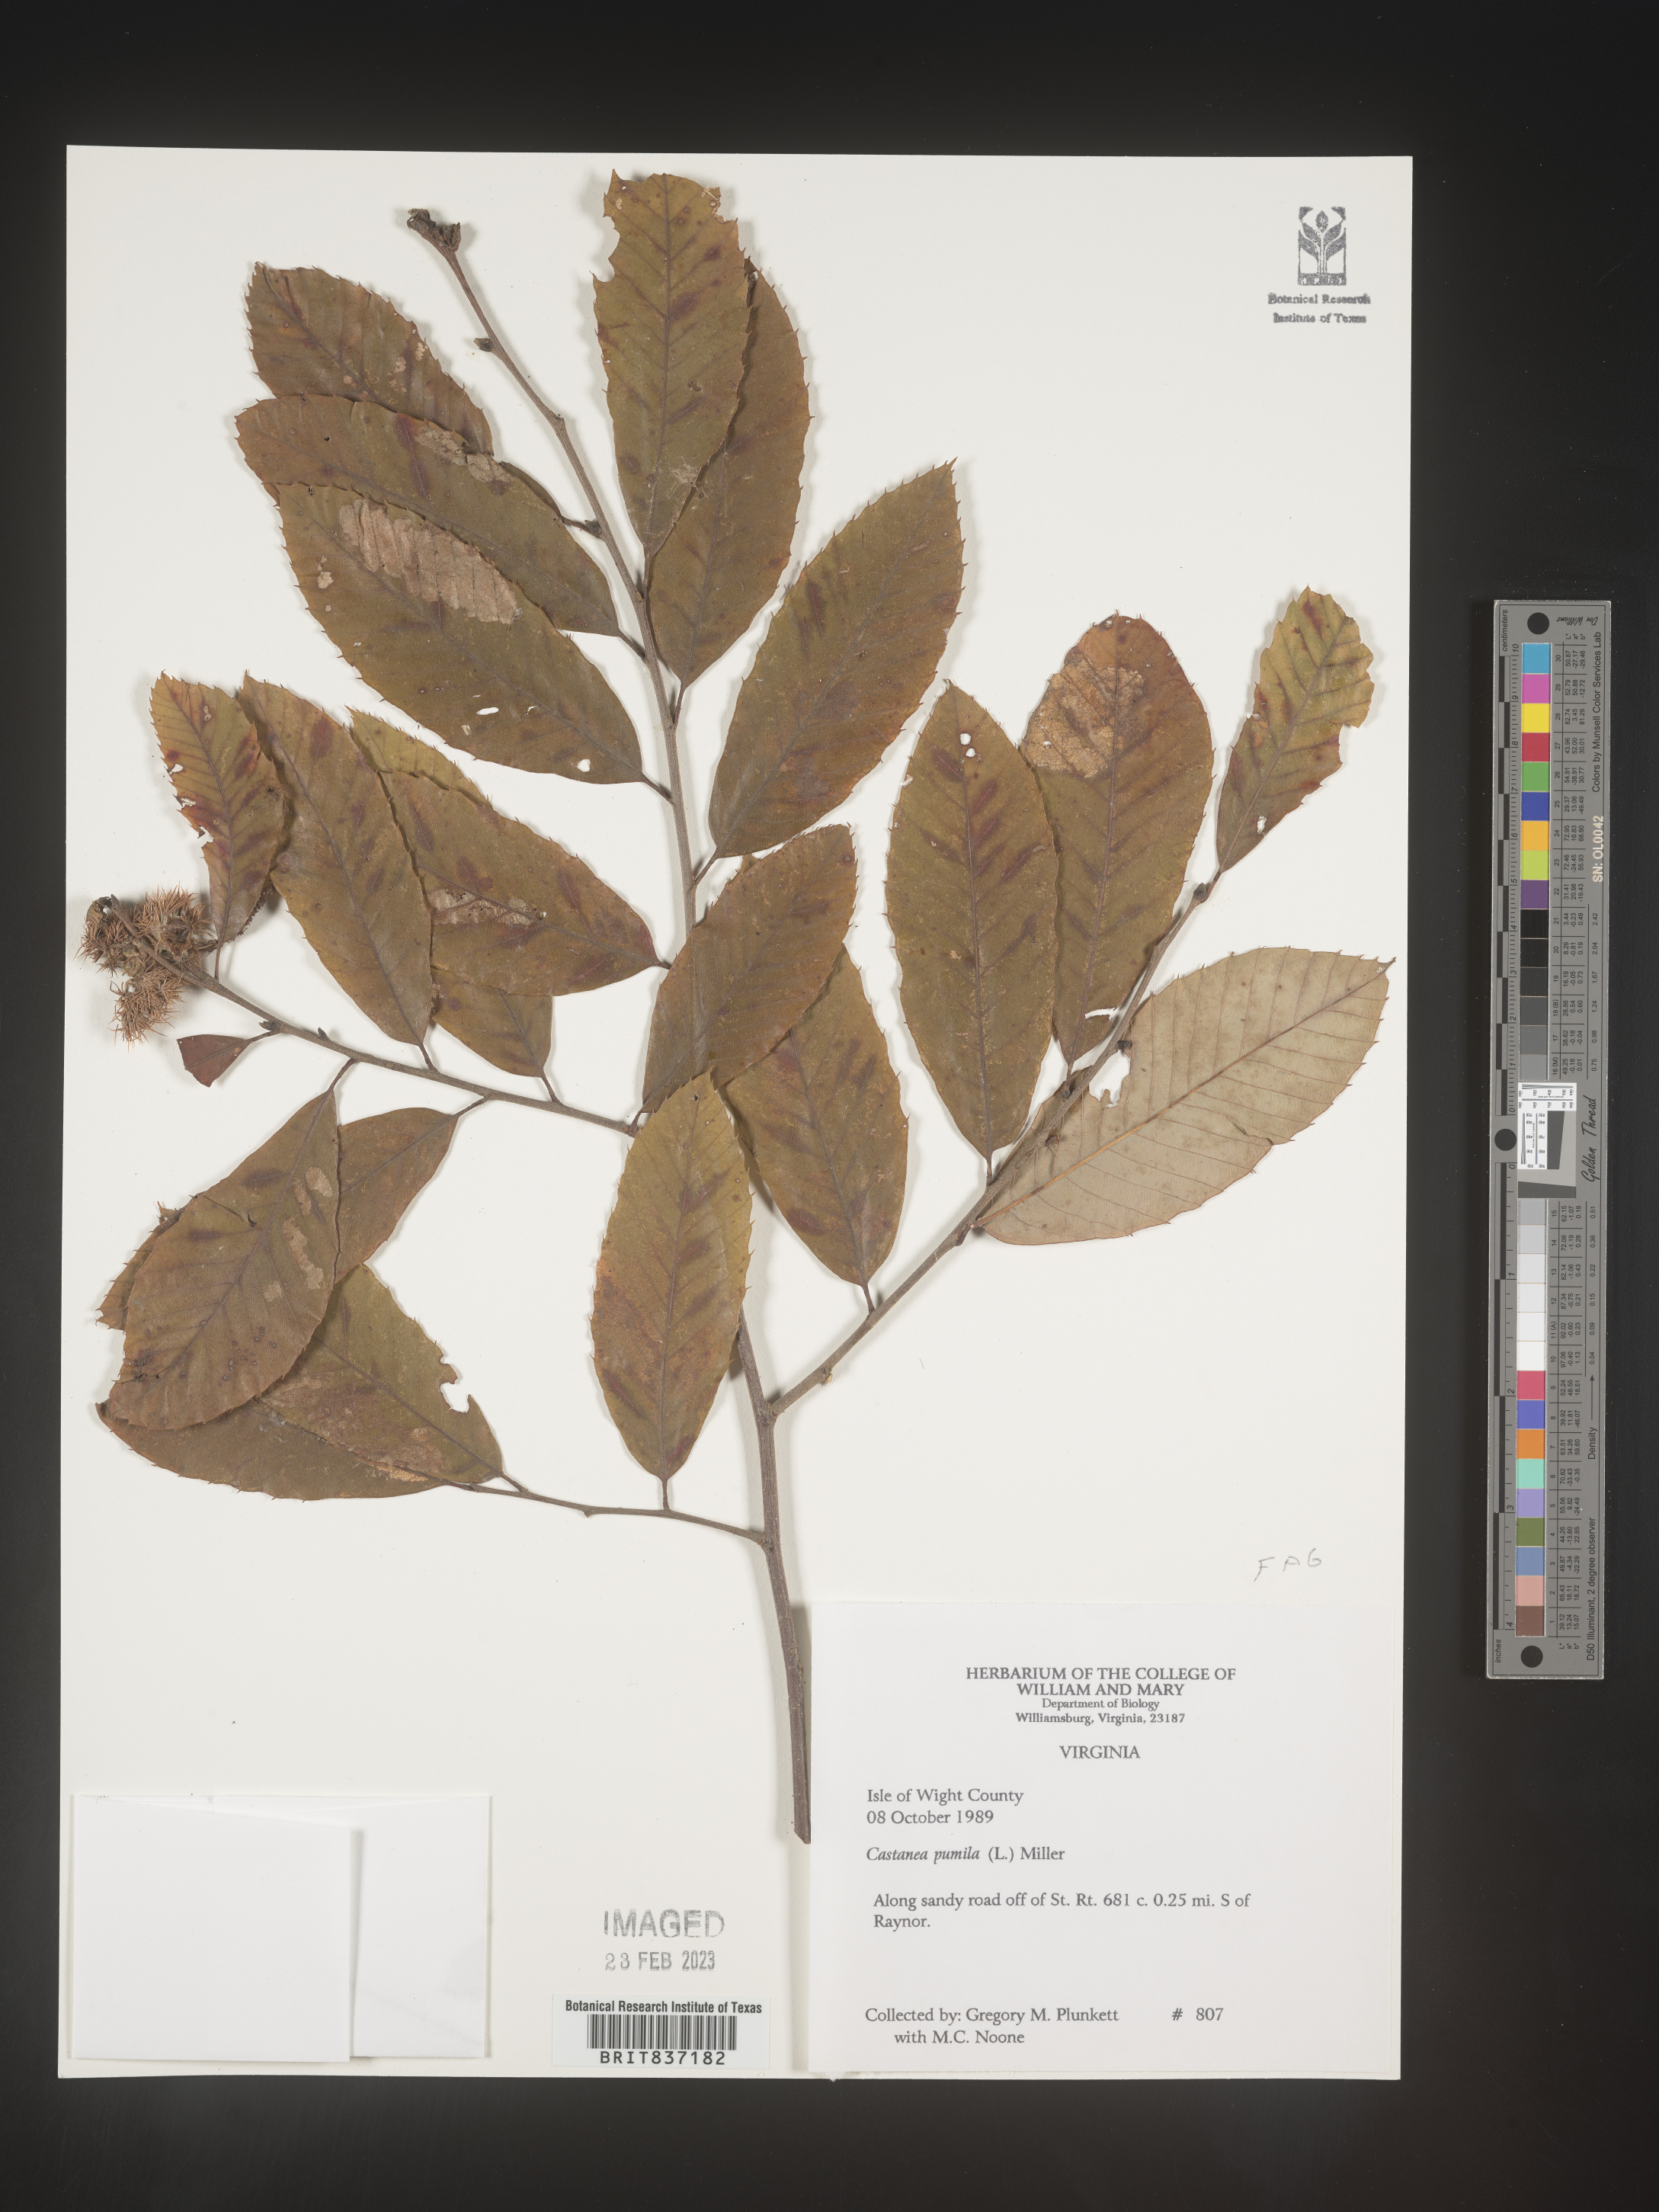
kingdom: Plantae
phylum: Tracheophyta
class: Magnoliopsida
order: Fagales
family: Fagaceae
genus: Castanea
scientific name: Castanea pumila
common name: Chinkapin
